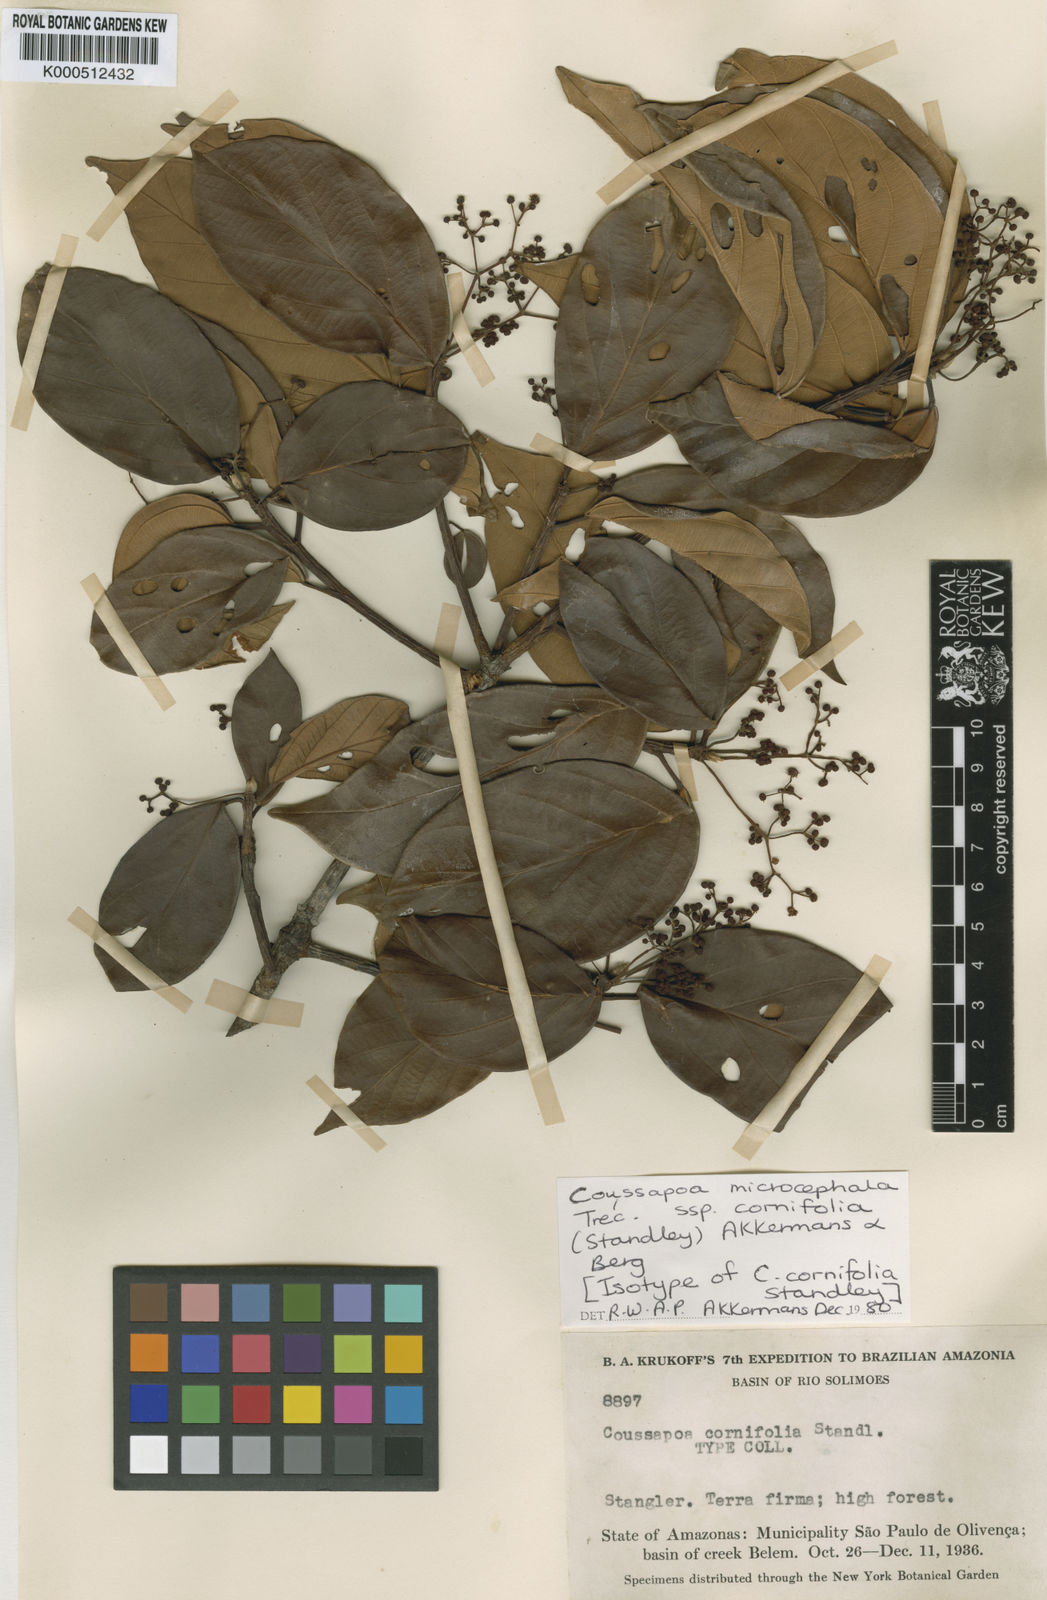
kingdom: Plantae
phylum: Tracheophyta
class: Magnoliopsida
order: Rosales
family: Urticaceae
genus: Coussapoa
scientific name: Coussapoa
